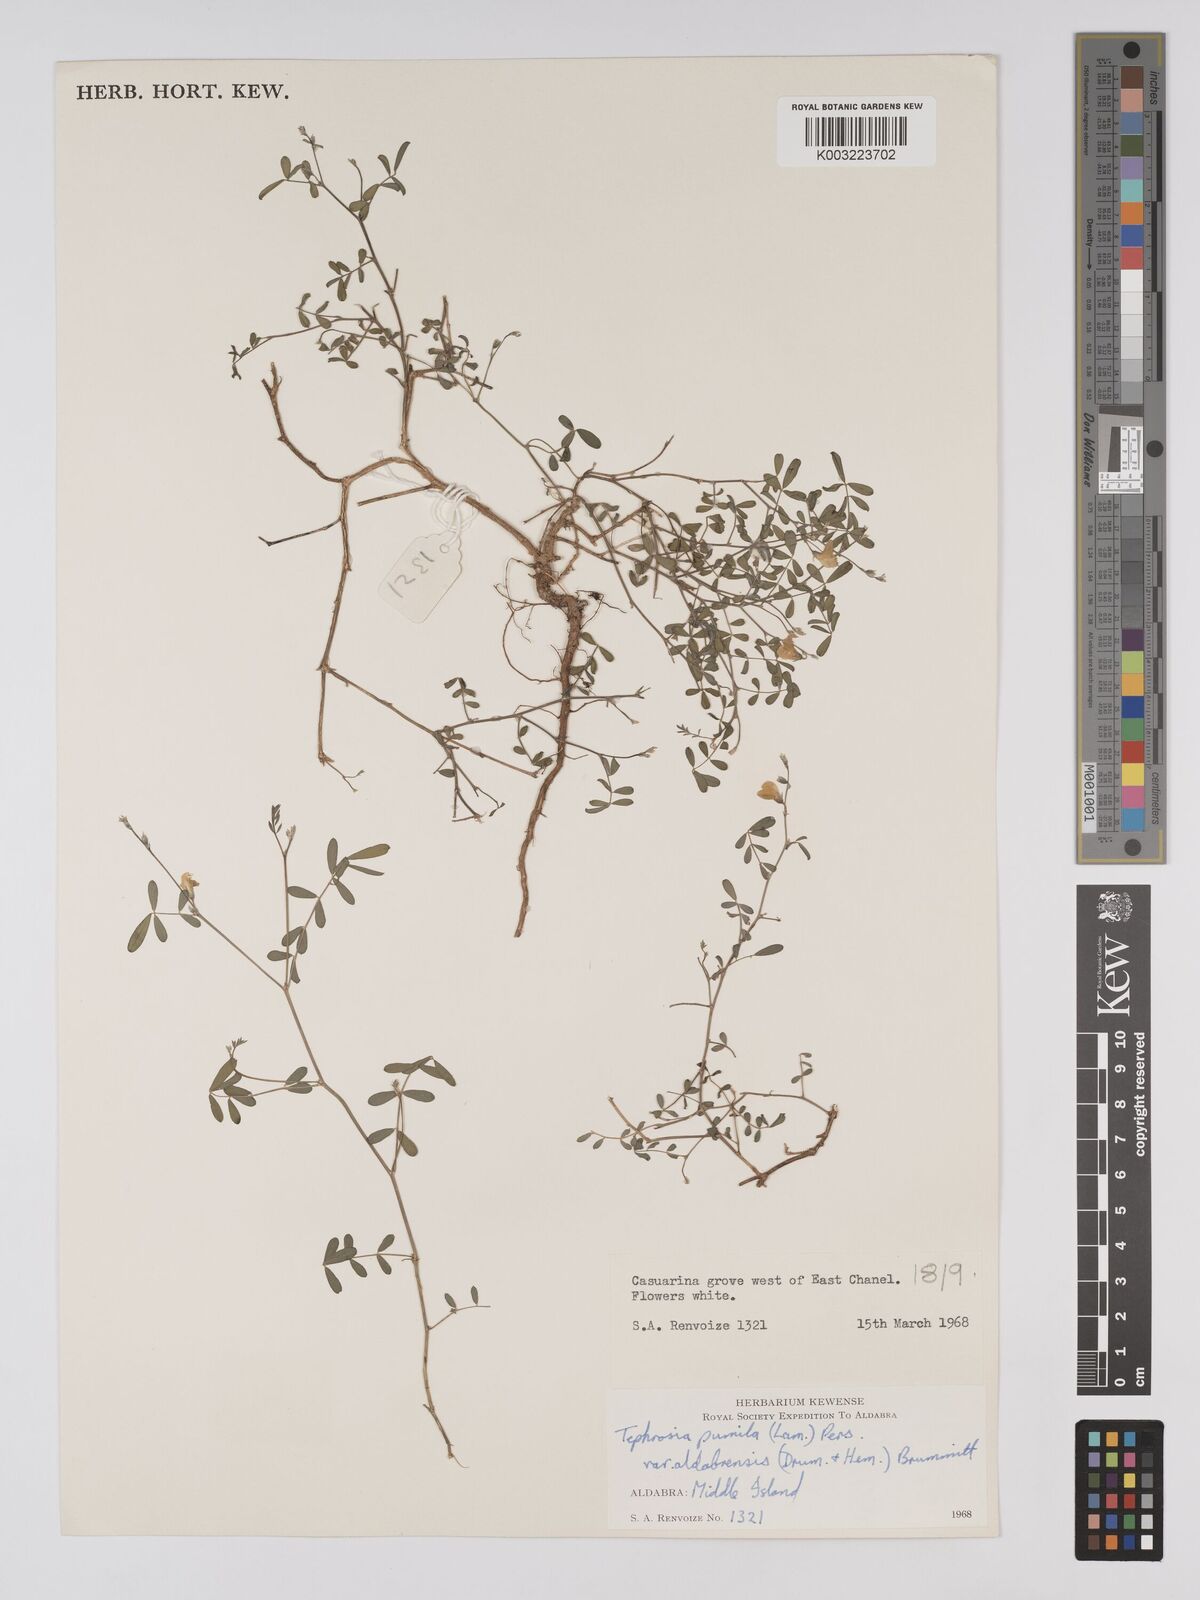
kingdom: Plantae
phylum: Tracheophyta
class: Magnoliopsida
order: Fabales
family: Fabaceae
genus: Tephrosia
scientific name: Tephrosia pumila
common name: Indigo sauvage
